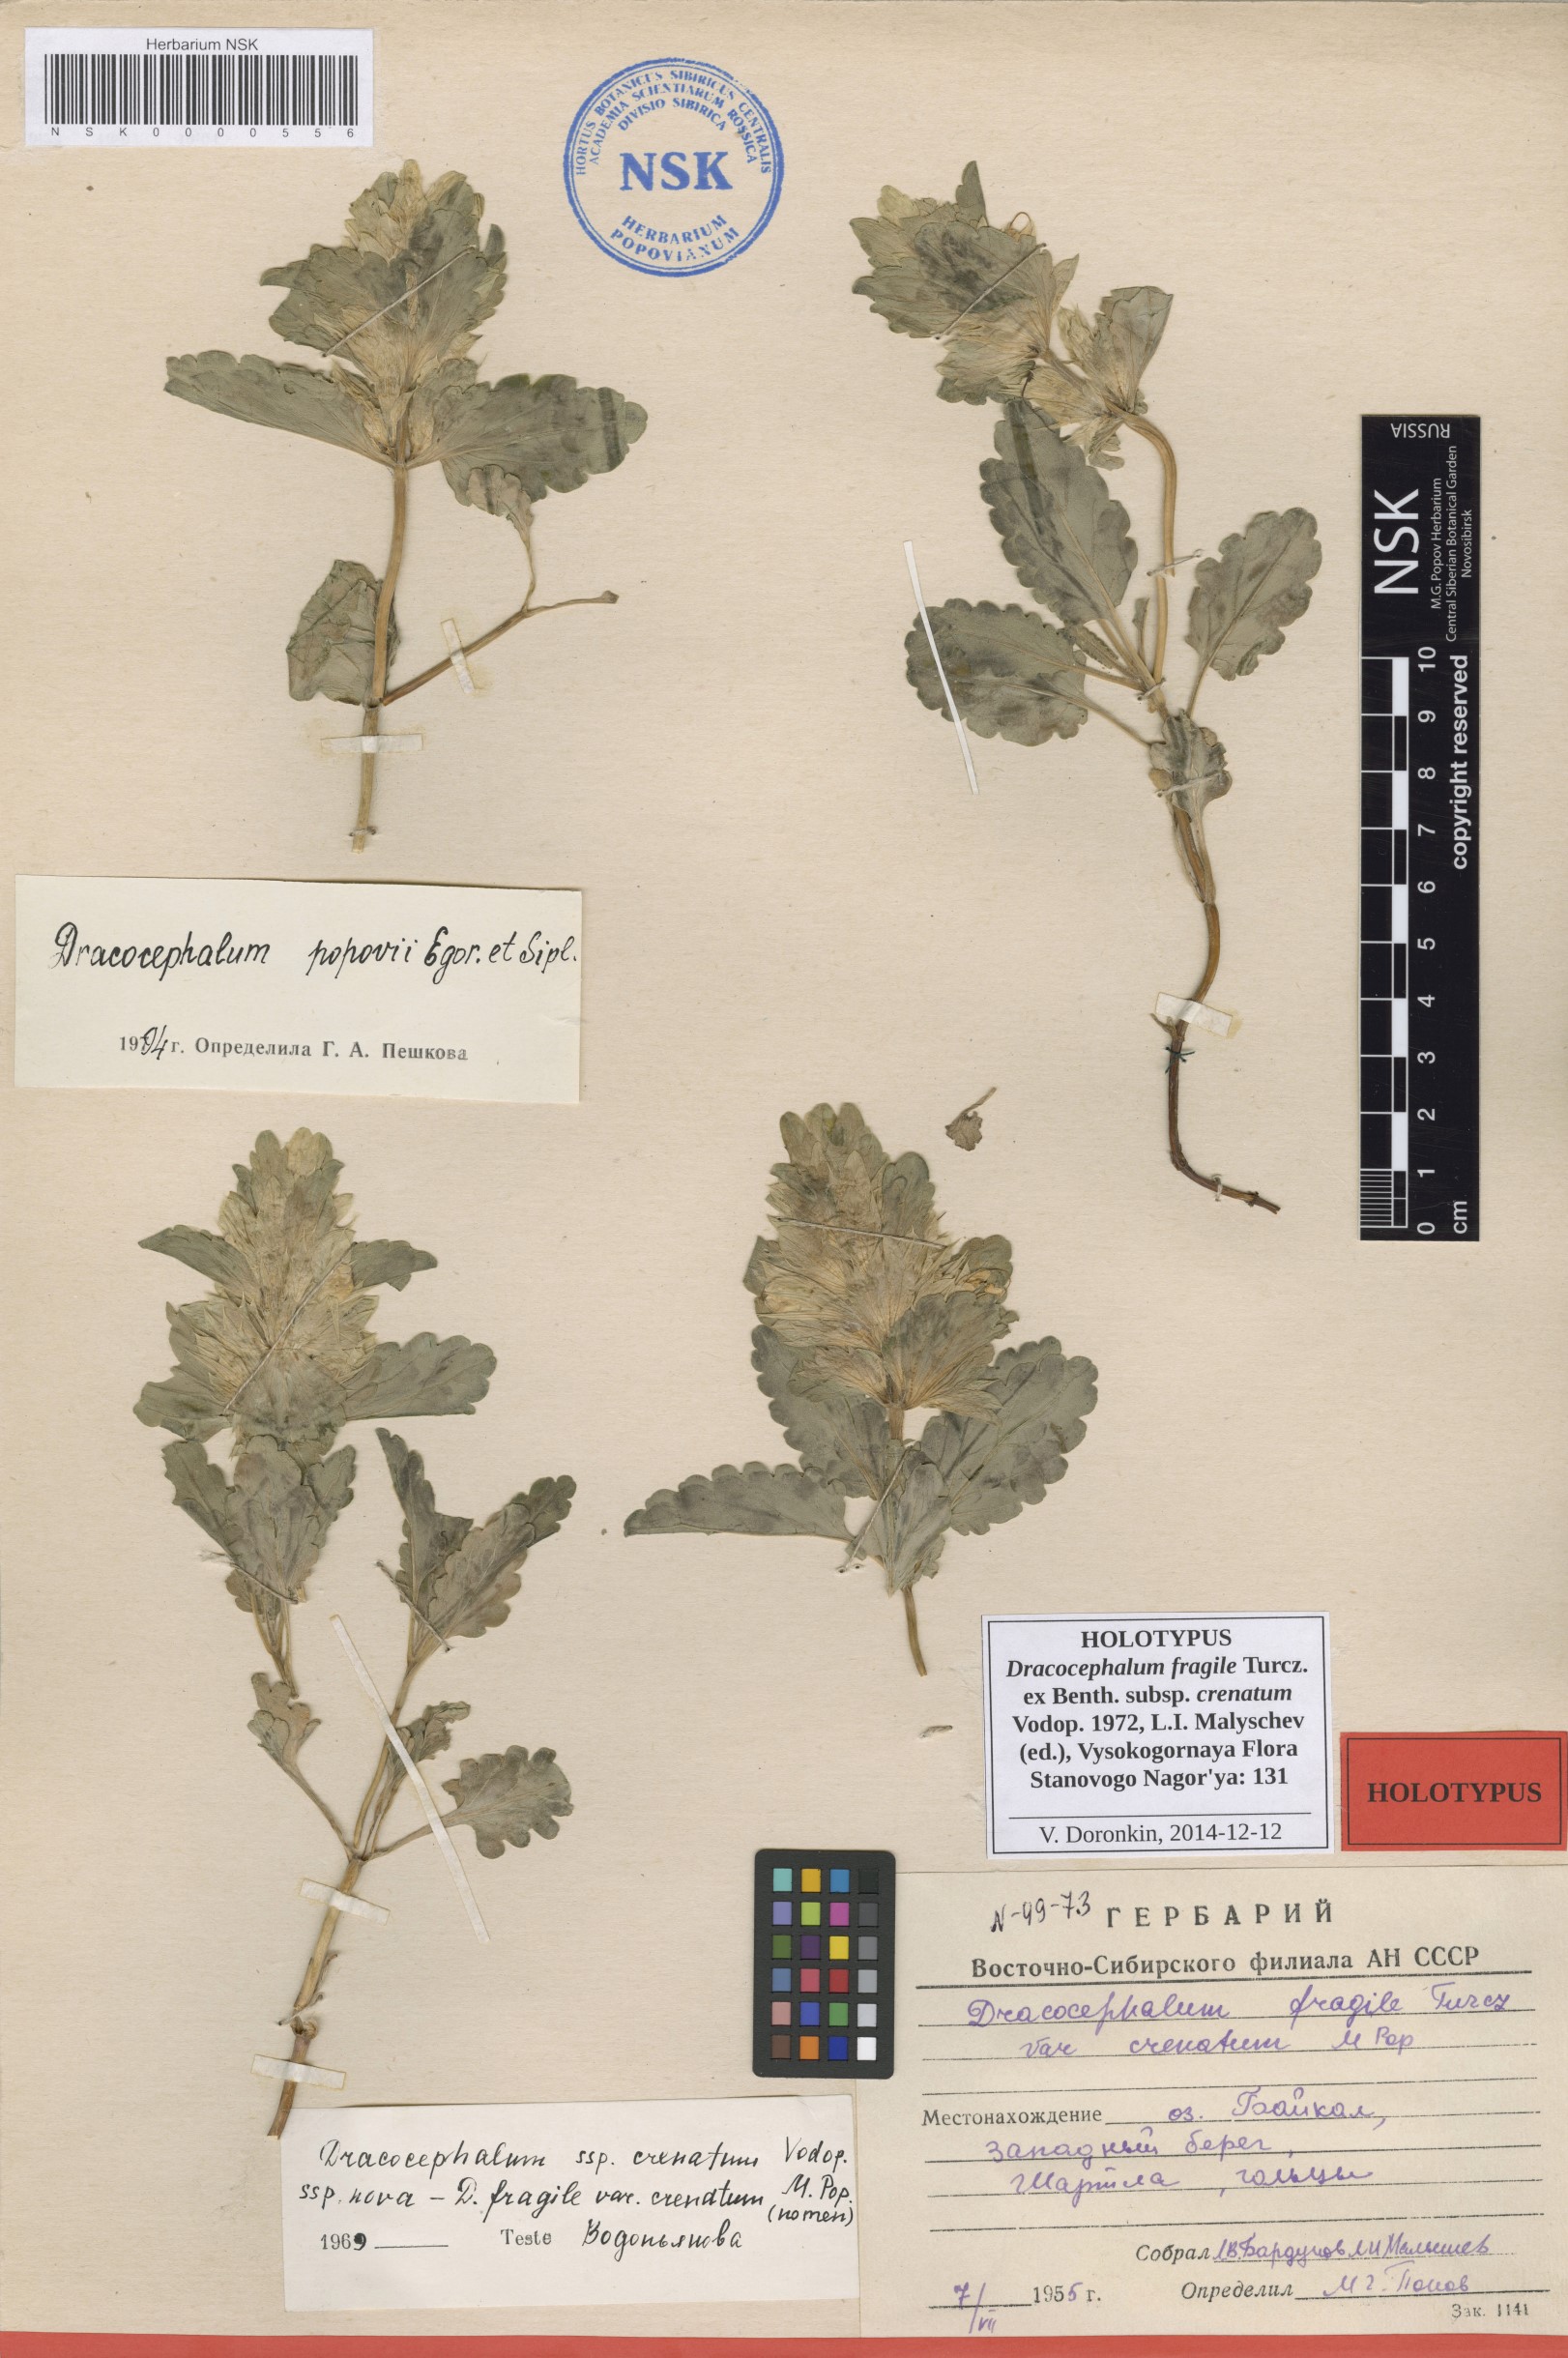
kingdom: Plantae
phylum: Tracheophyta
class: Magnoliopsida
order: Lamiales
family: Lamiaceae
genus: Dracocephalum
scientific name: Dracocephalum fragile
